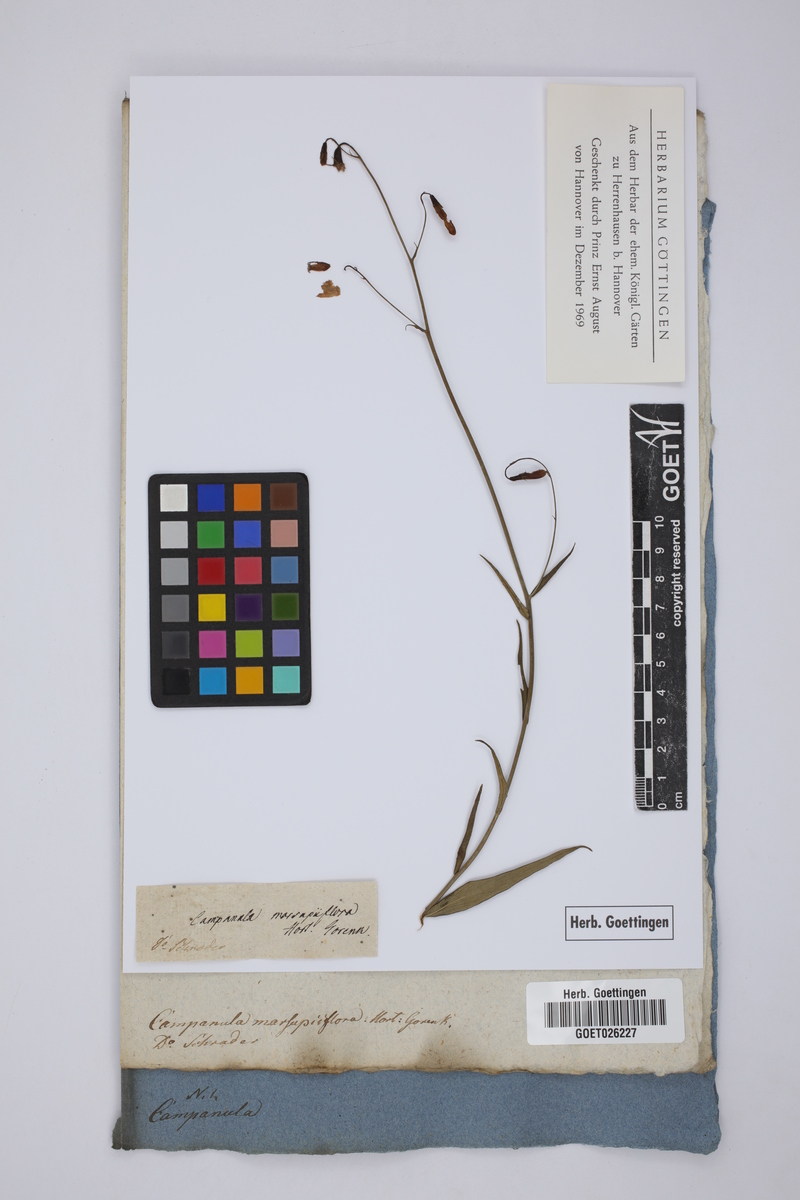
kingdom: Plantae
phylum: Tracheophyta
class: Magnoliopsida
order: Asterales
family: Campanulaceae
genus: Adenophora
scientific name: Adenophora stenanthina
